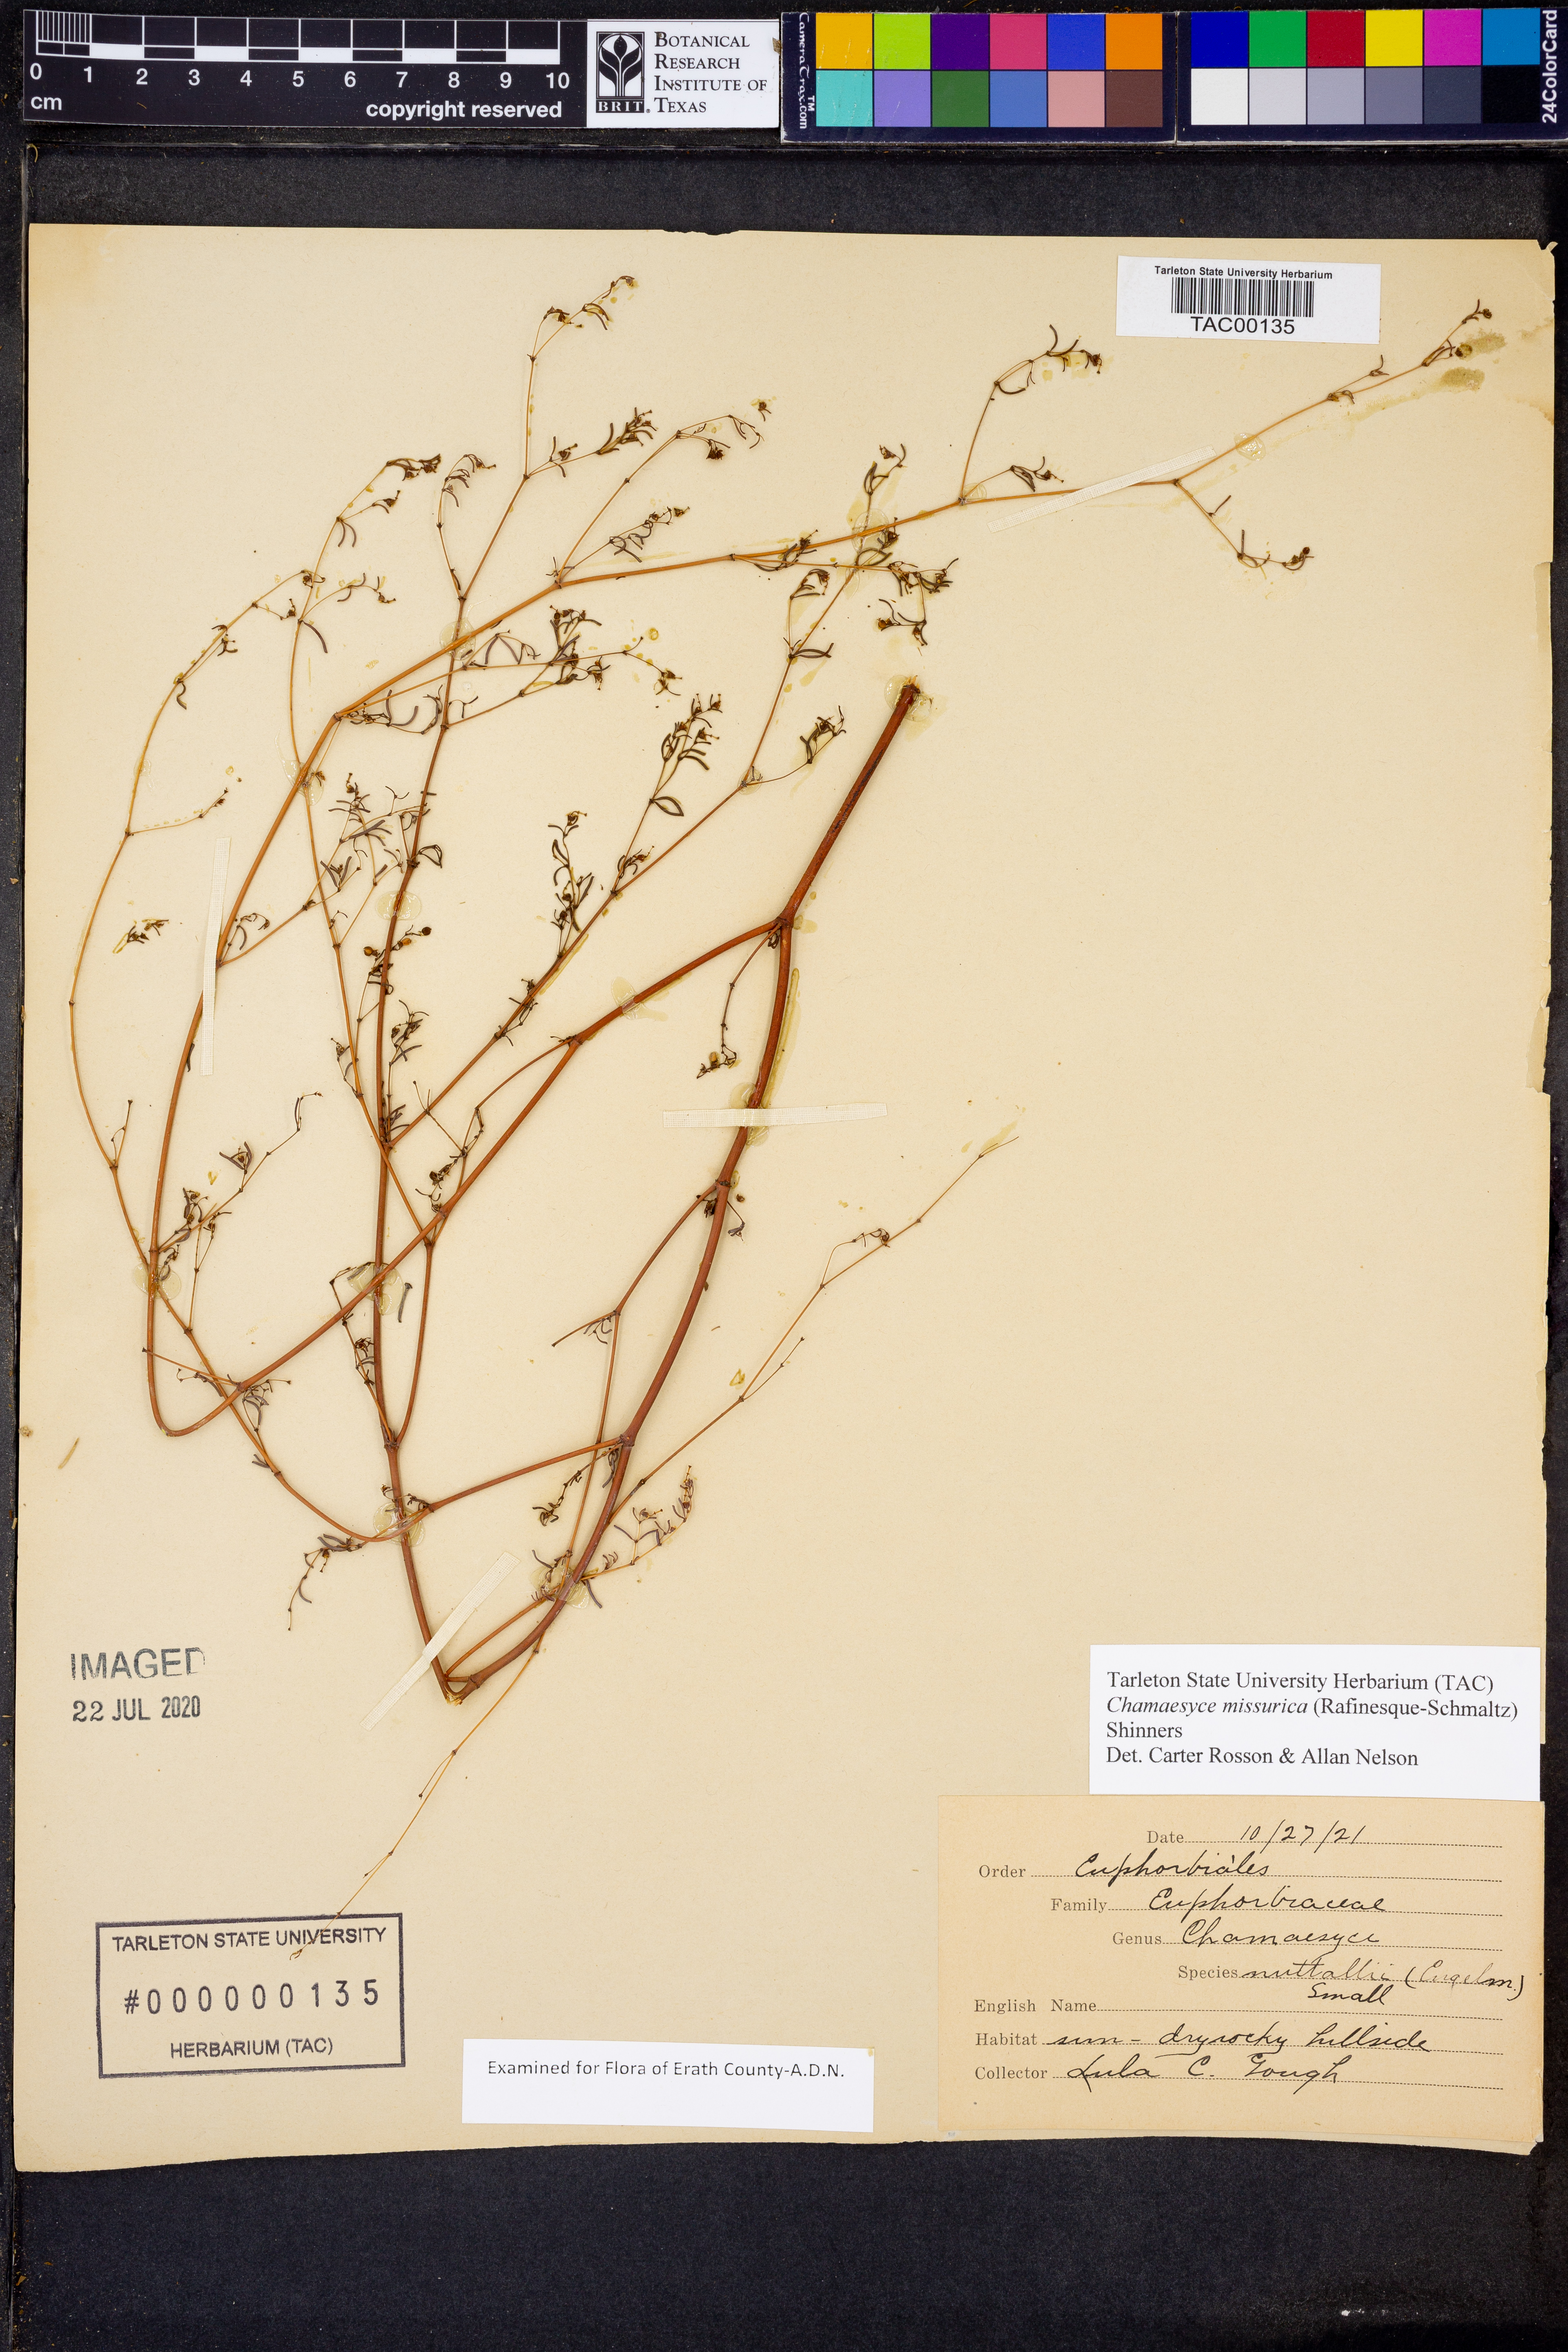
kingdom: Plantae
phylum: Tracheophyta
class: Magnoliopsida
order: Malpighiales
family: Euphorbiaceae
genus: Euphorbia
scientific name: Euphorbia missurica
